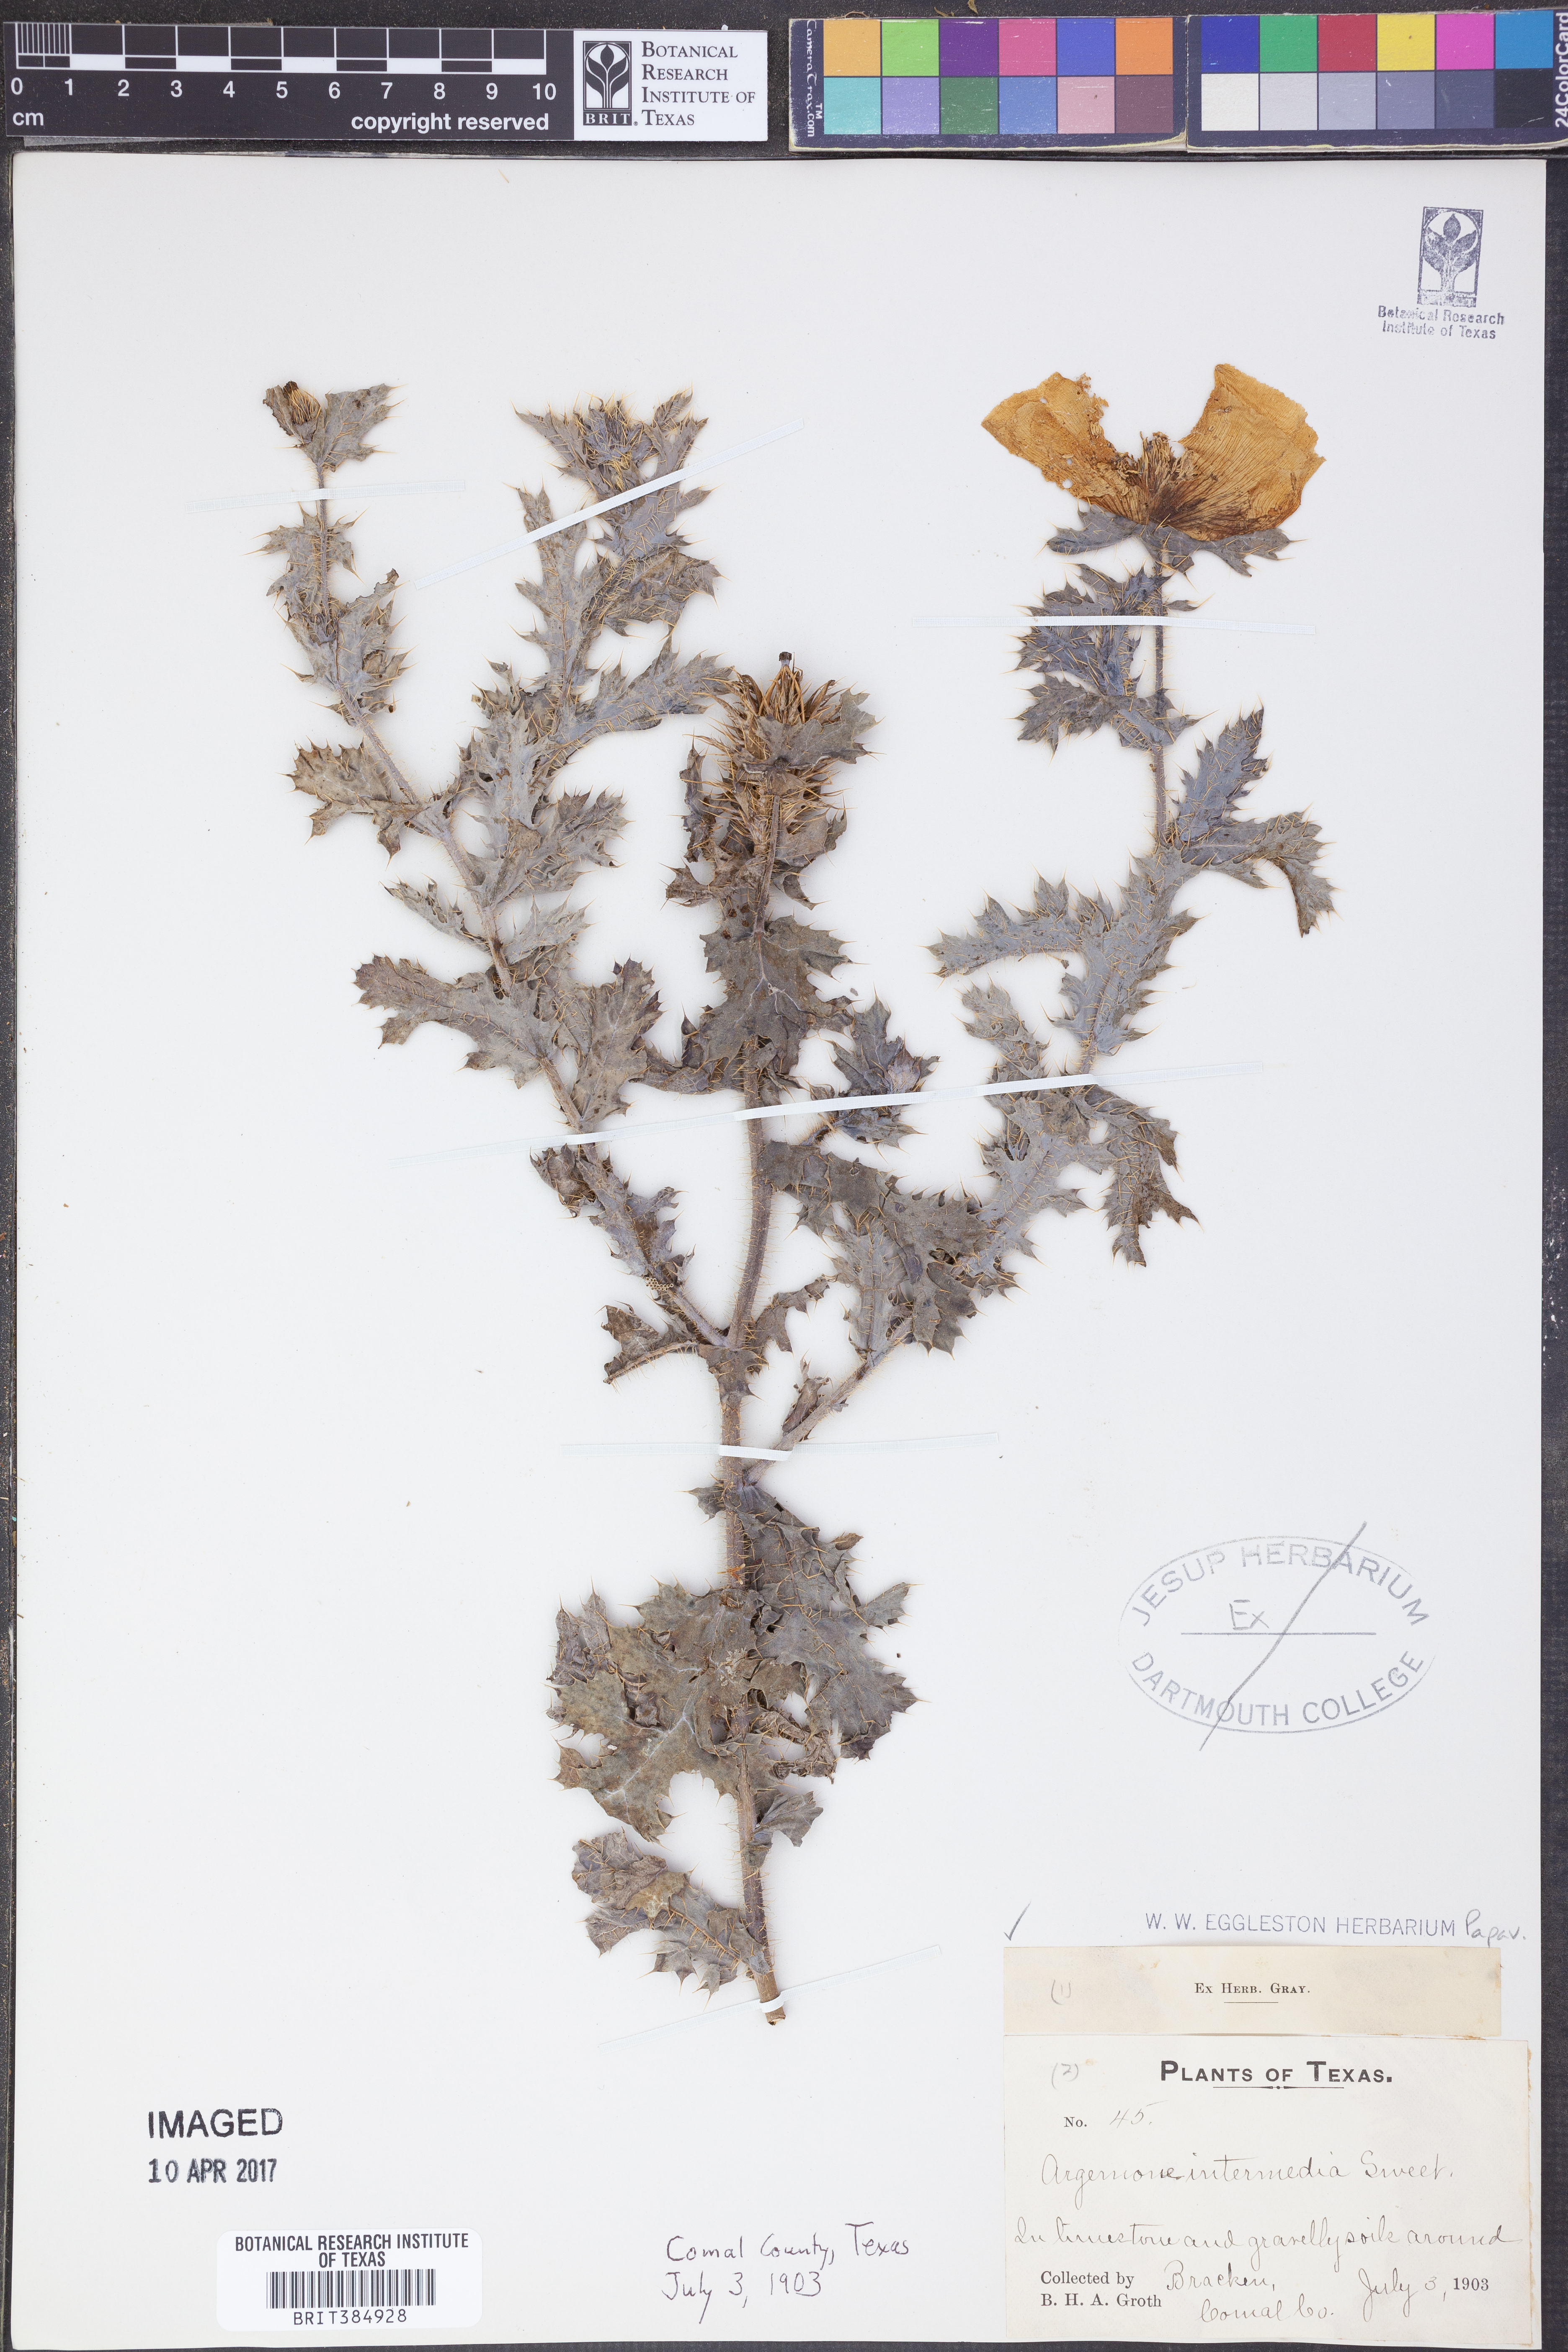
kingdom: Plantae
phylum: Tracheophyta
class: Magnoliopsida
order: Ranunculales
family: Papaveraceae
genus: Argemone
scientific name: Argemone intermedia
